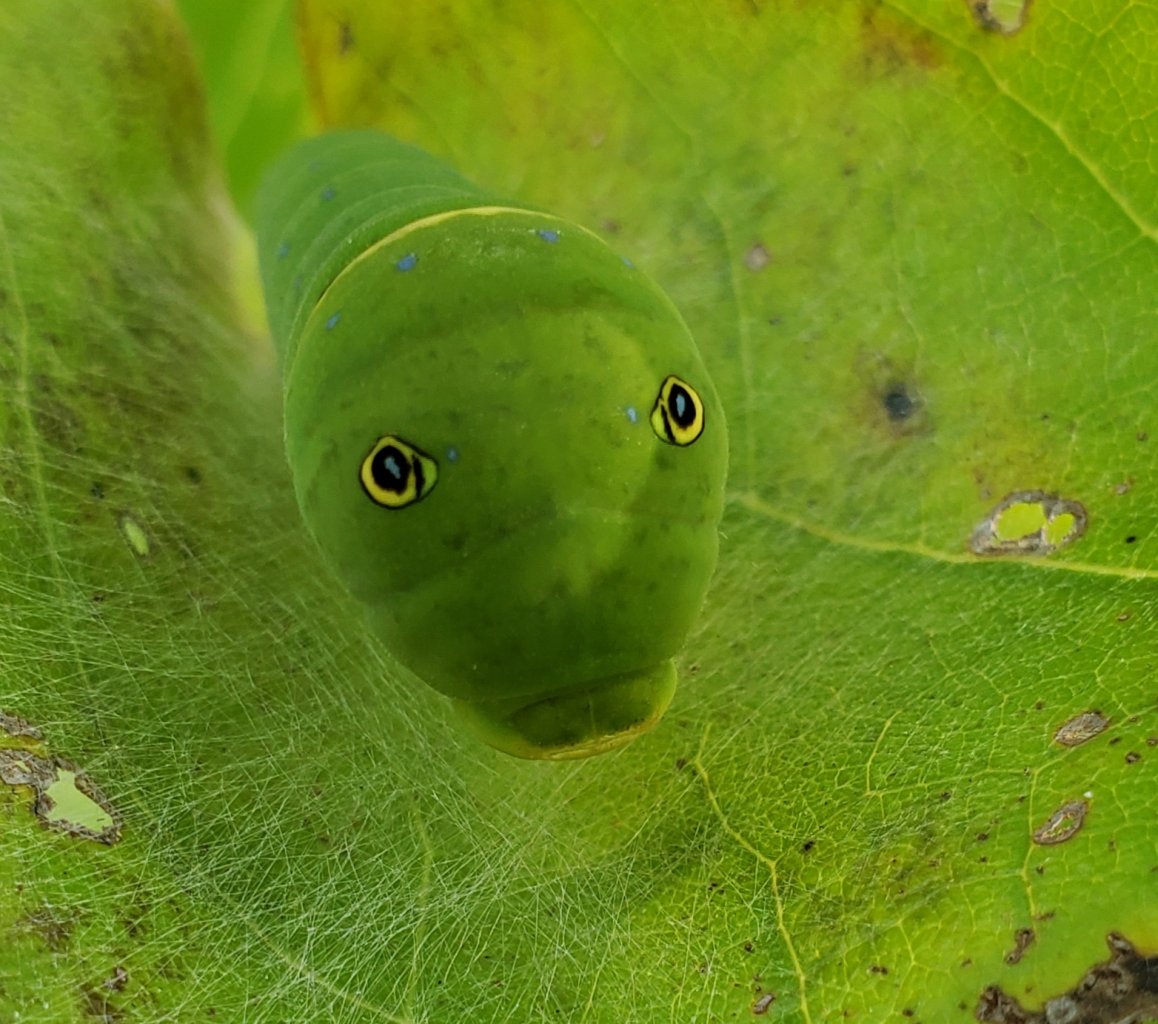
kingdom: Animalia
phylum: Arthropoda
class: Insecta
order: Lepidoptera
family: Papilionidae
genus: Pterourus
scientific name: Pterourus
